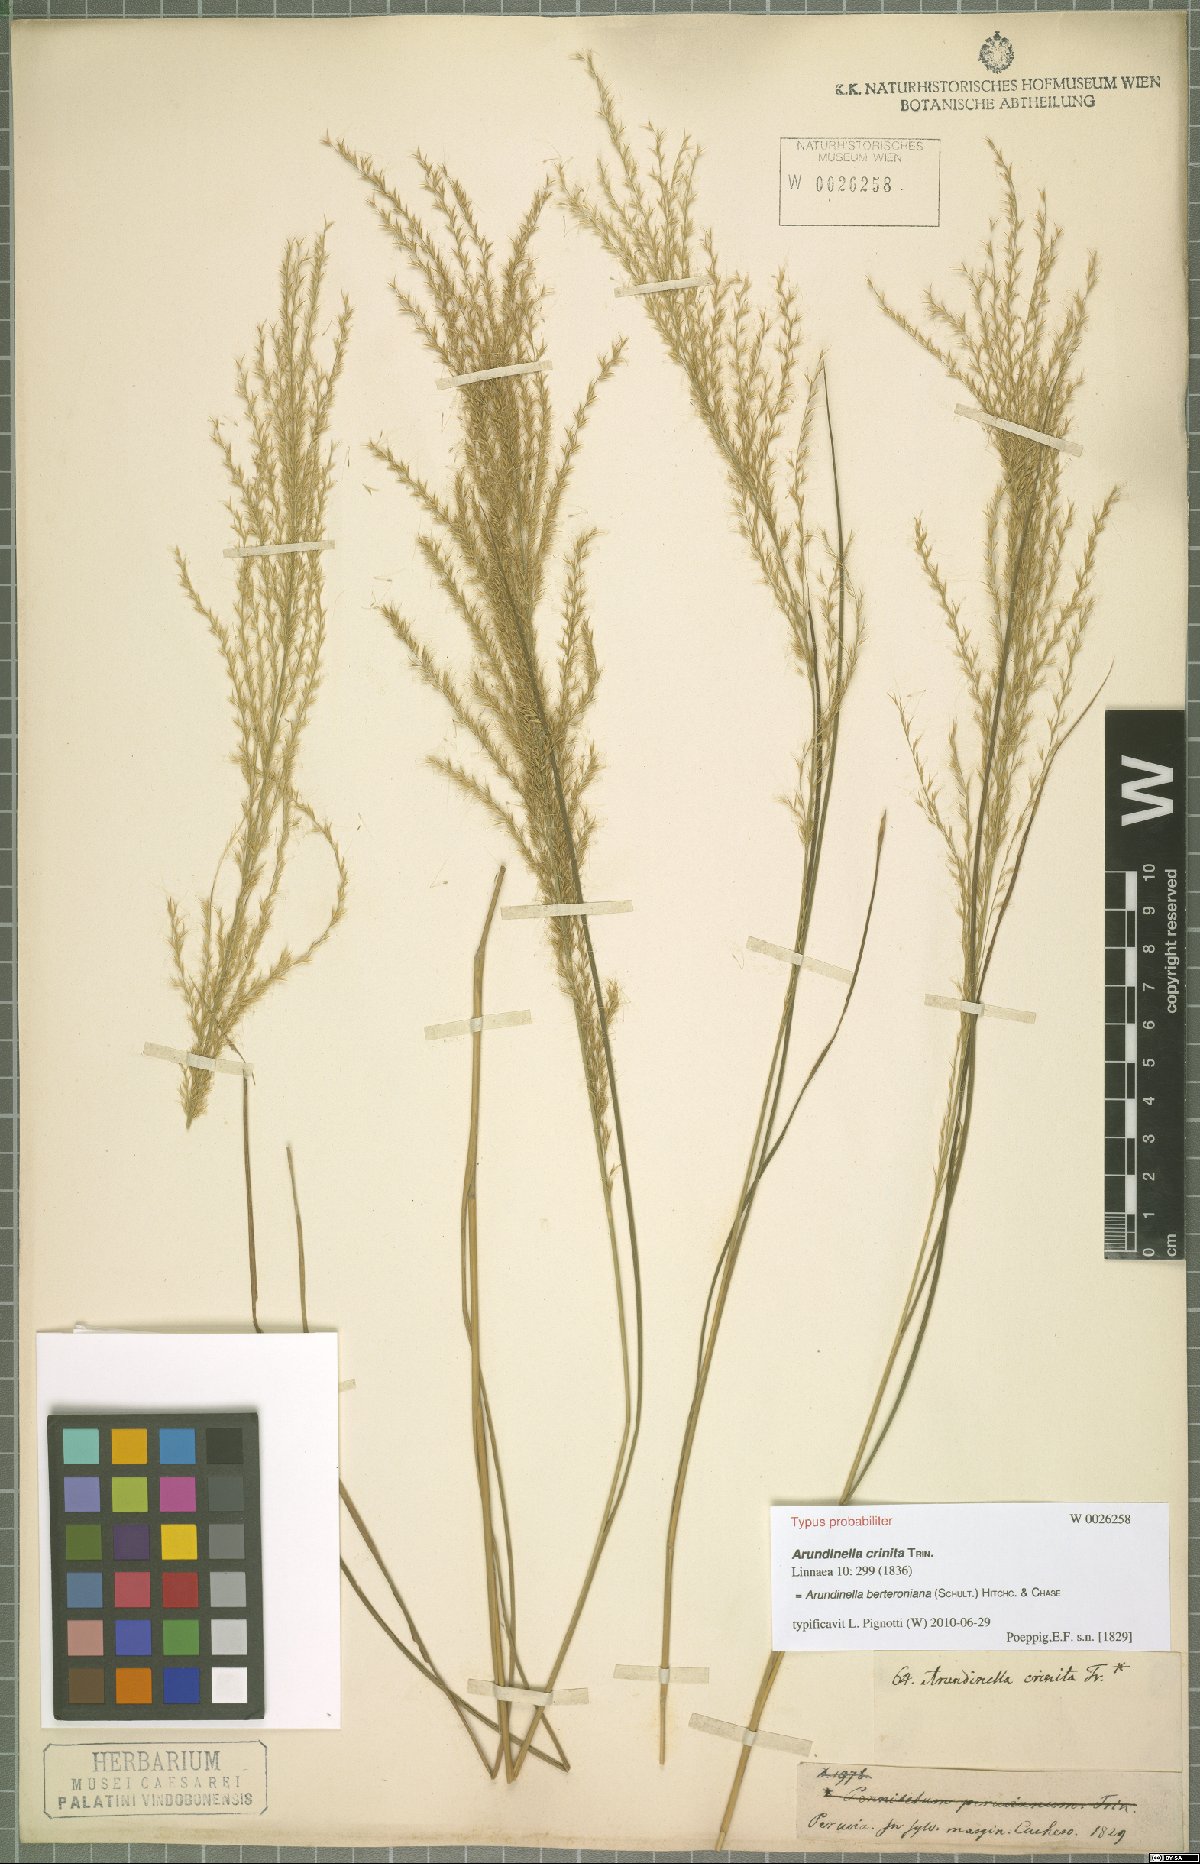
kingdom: Plantae
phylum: Tracheophyta
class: Liliopsida
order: Poales
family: Poaceae
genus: Arundinella
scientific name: Arundinella berteroniana
